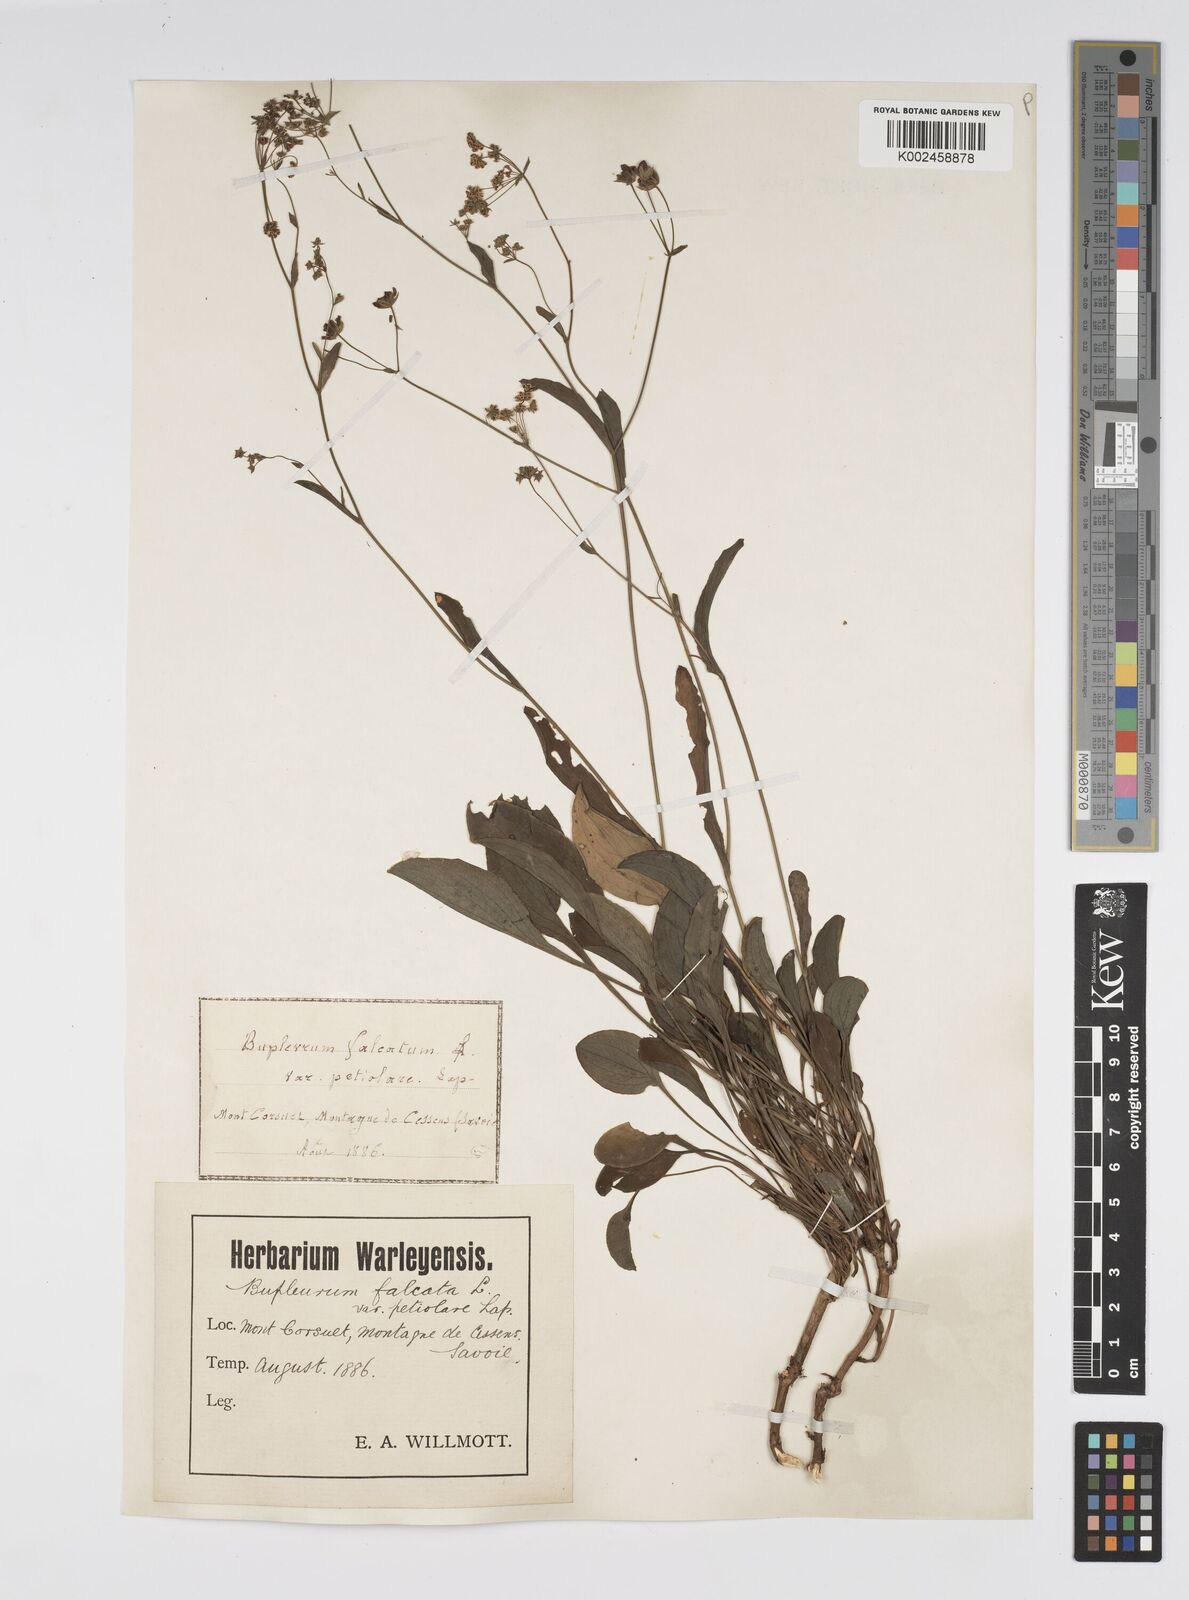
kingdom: Plantae
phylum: Tracheophyta
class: Magnoliopsida
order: Apiales
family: Apiaceae
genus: Bupleurum
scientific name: Bupleurum falcatum
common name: Sickle-leaved hare's-ear
